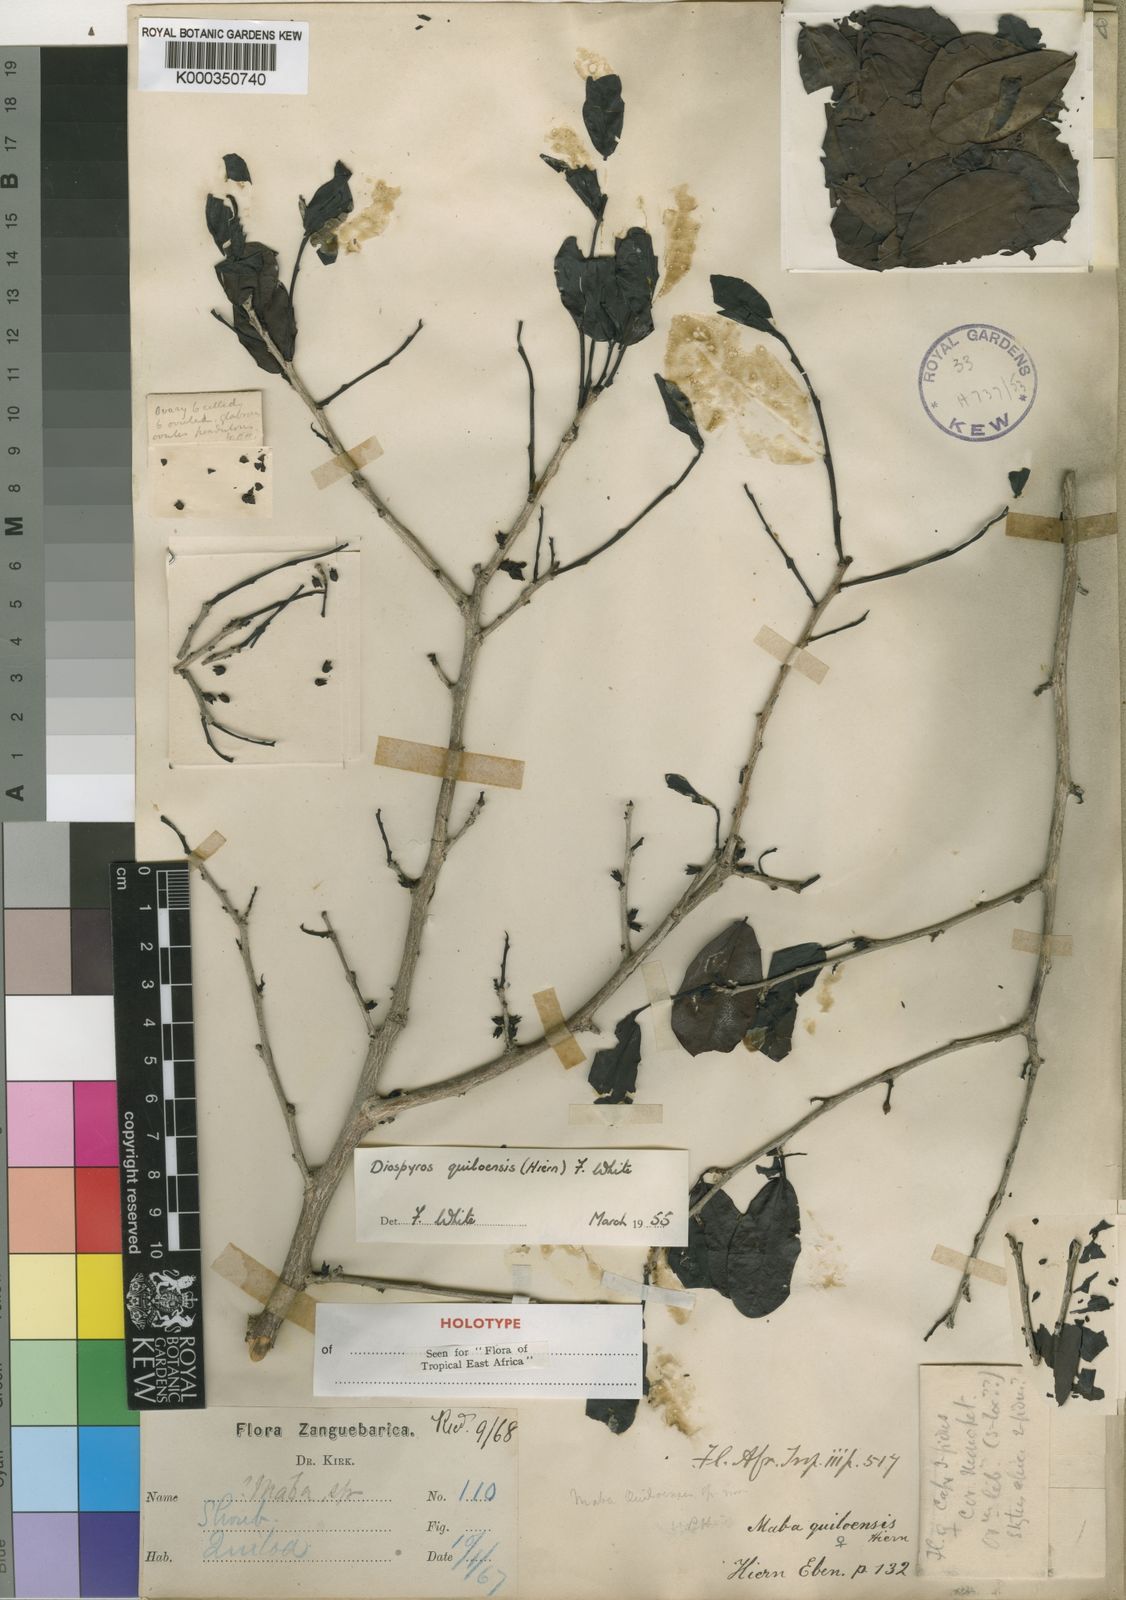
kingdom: Plantae
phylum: Tracheophyta
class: Magnoliopsida
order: Ericales
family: Ebenaceae
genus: Diospyros
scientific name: Diospyros quiloensis
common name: Crocodile bark jackal berry
